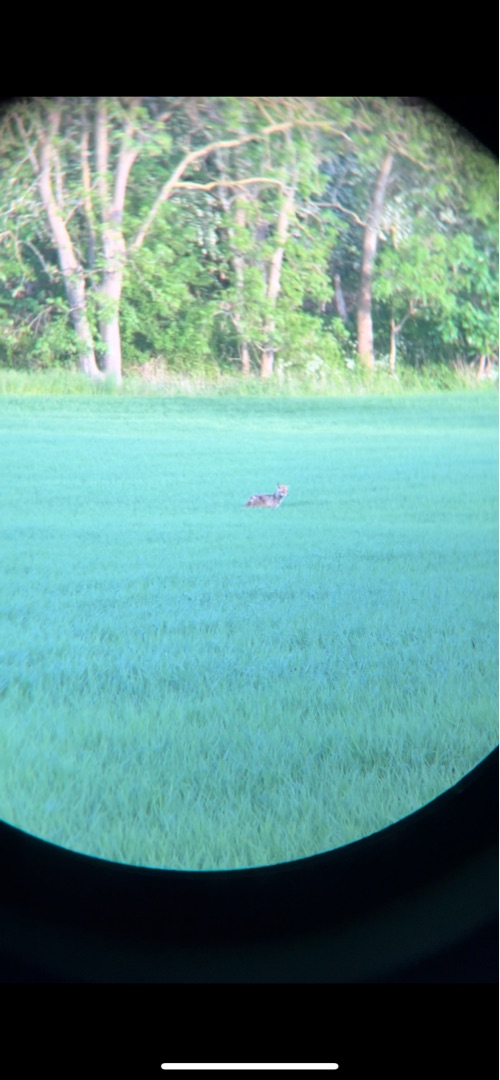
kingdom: Animalia
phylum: Chordata
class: Mammalia
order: Carnivora
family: Canidae
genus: Vulpes
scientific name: Vulpes vulpes
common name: Ræv
